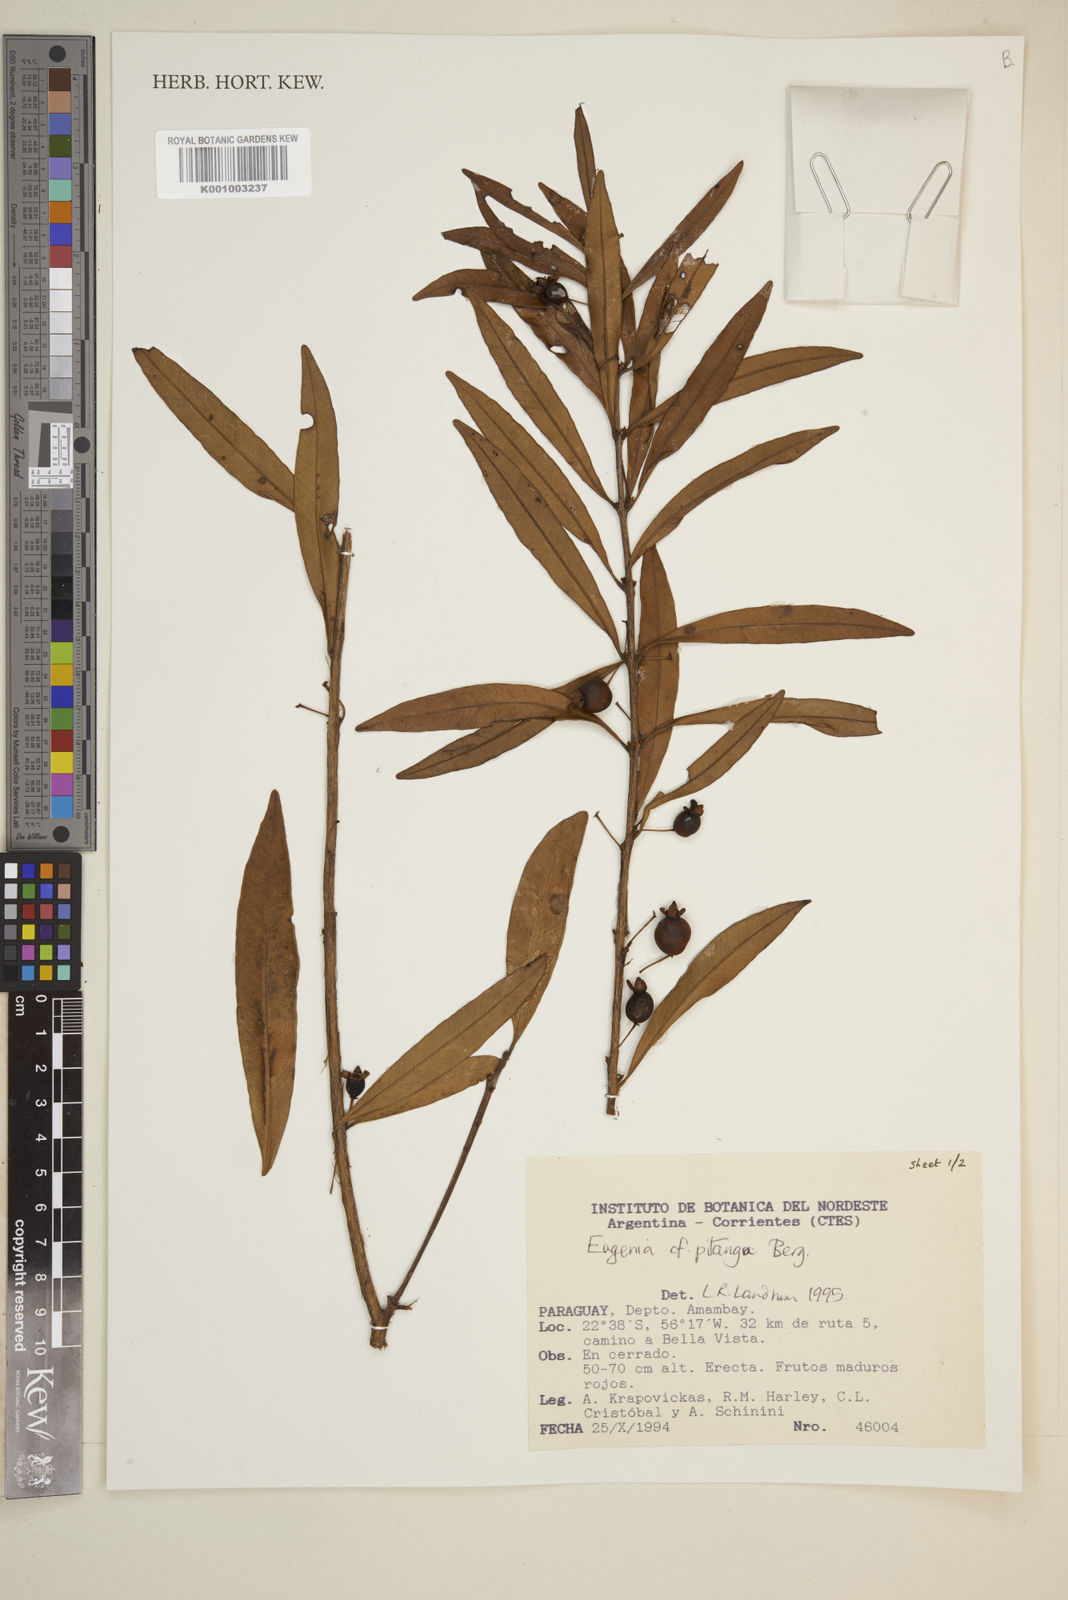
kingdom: Plantae
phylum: Tracheophyta
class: Magnoliopsida
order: Myrtales
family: Myrtaceae
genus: Eugenia
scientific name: Eugenia pitanga
